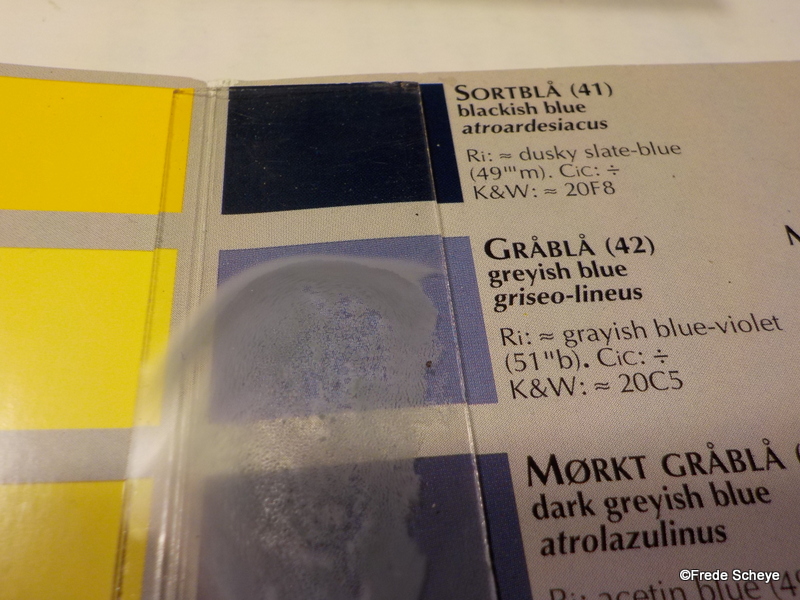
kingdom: Fungi
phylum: Basidiomycota
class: Agaricomycetes
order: Polyporales
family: Polyporaceae
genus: Cyanosporus
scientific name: Cyanosporus alni
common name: blegblå kødporesvamp
